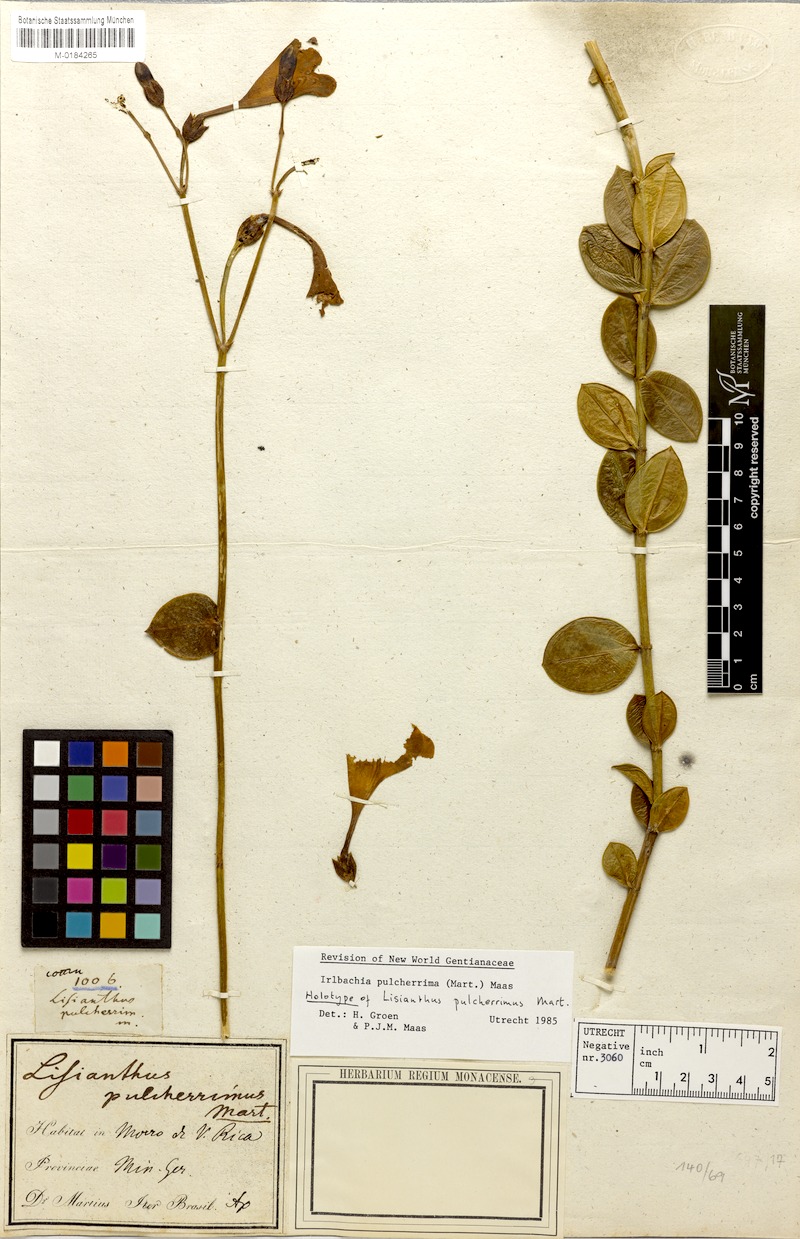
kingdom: Plantae
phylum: Tracheophyta
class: Magnoliopsida
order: Gentianales
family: Gentianaceae
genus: Calolisianthus
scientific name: Calolisianthus pulcherrimus
